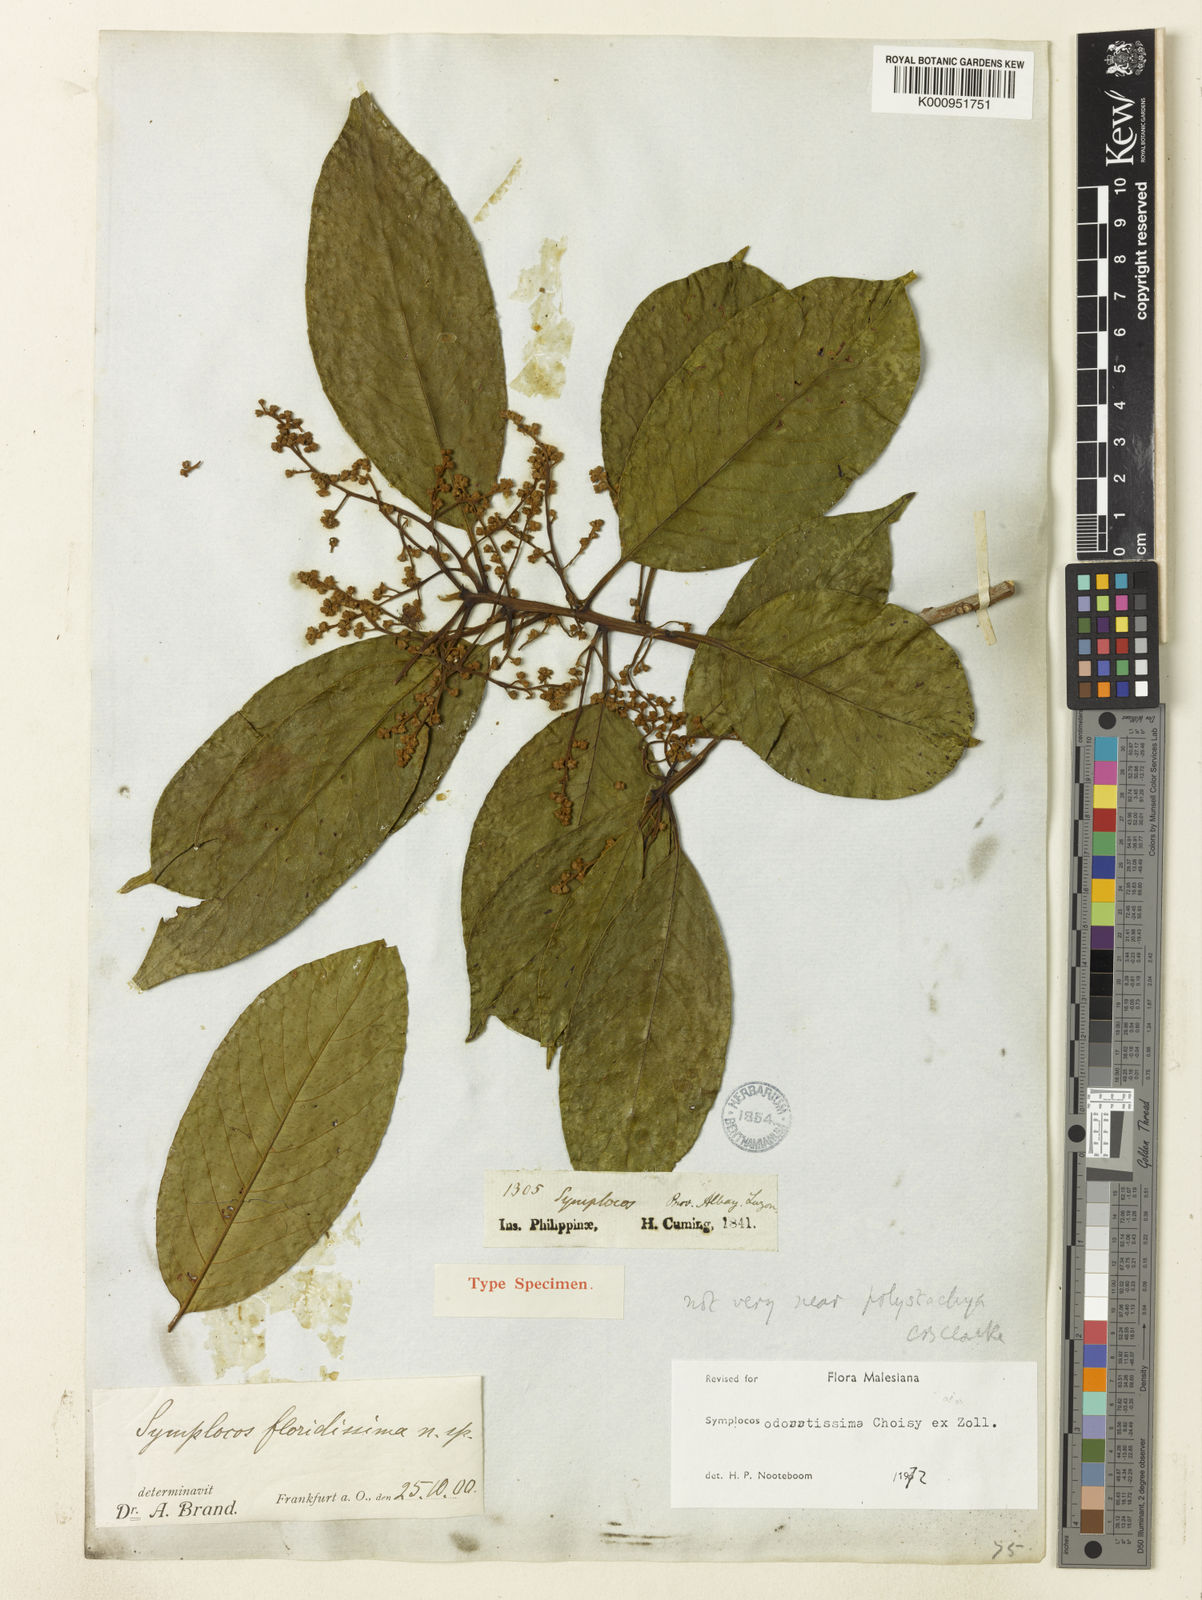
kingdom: Plantae
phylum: Tracheophyta
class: Magnoliopsida
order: Ericales
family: Symplocaceae
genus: Symplocos
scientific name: Symplocos odoratissima
